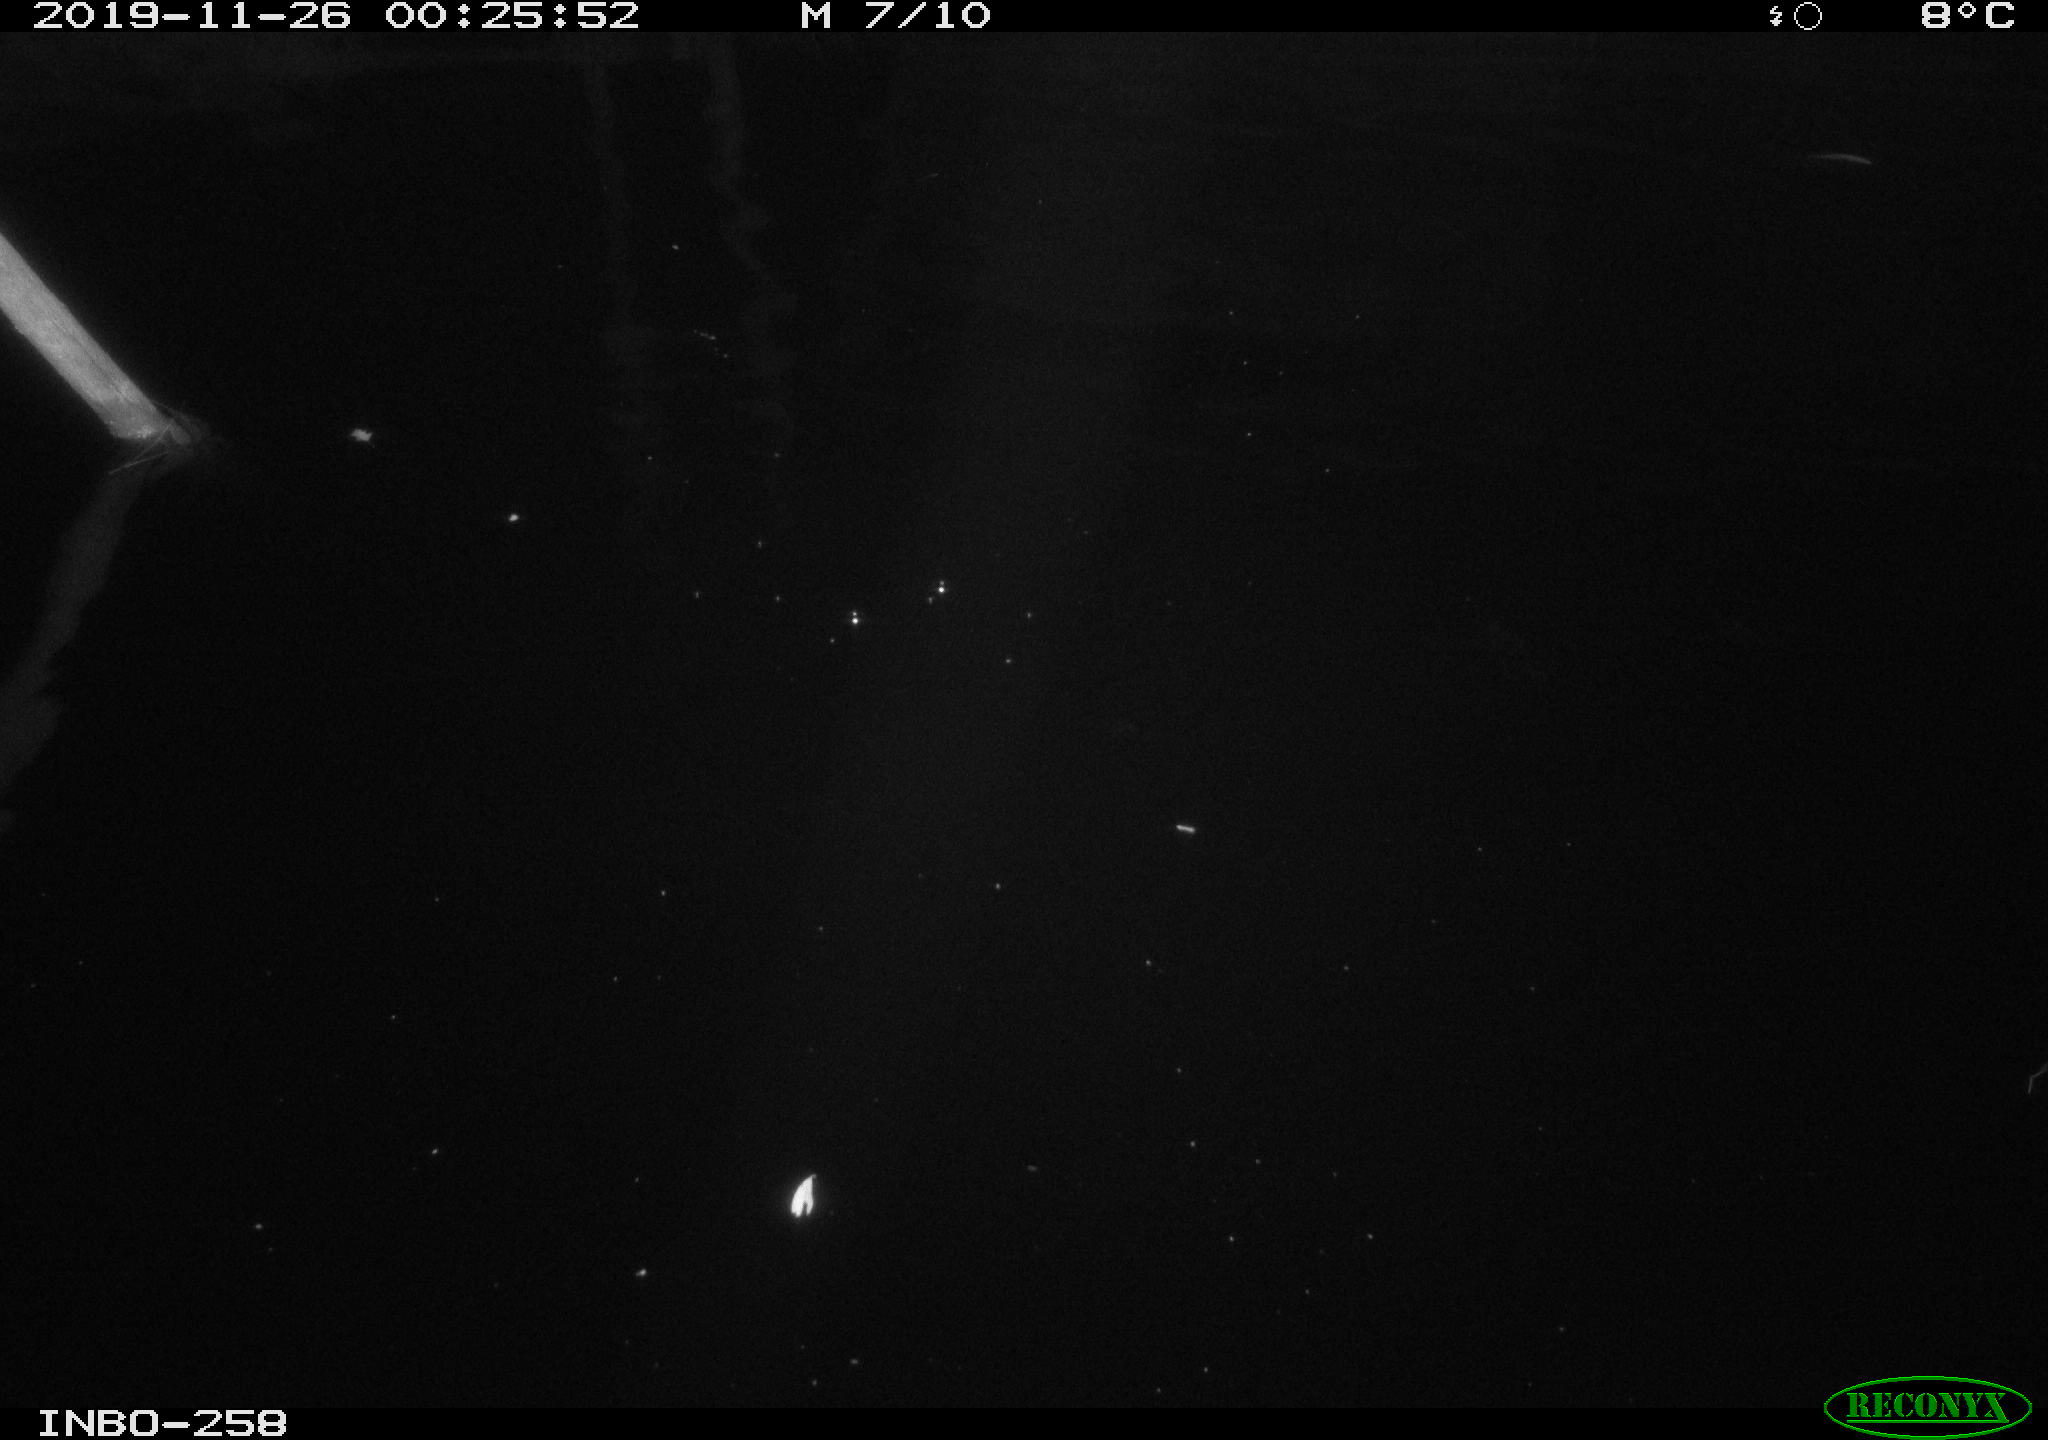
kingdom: Animalia
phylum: Chordata
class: Aves
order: Anseriformes
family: Anatidae
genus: Anas
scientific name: Anas platyrhynchos
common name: Mallard
